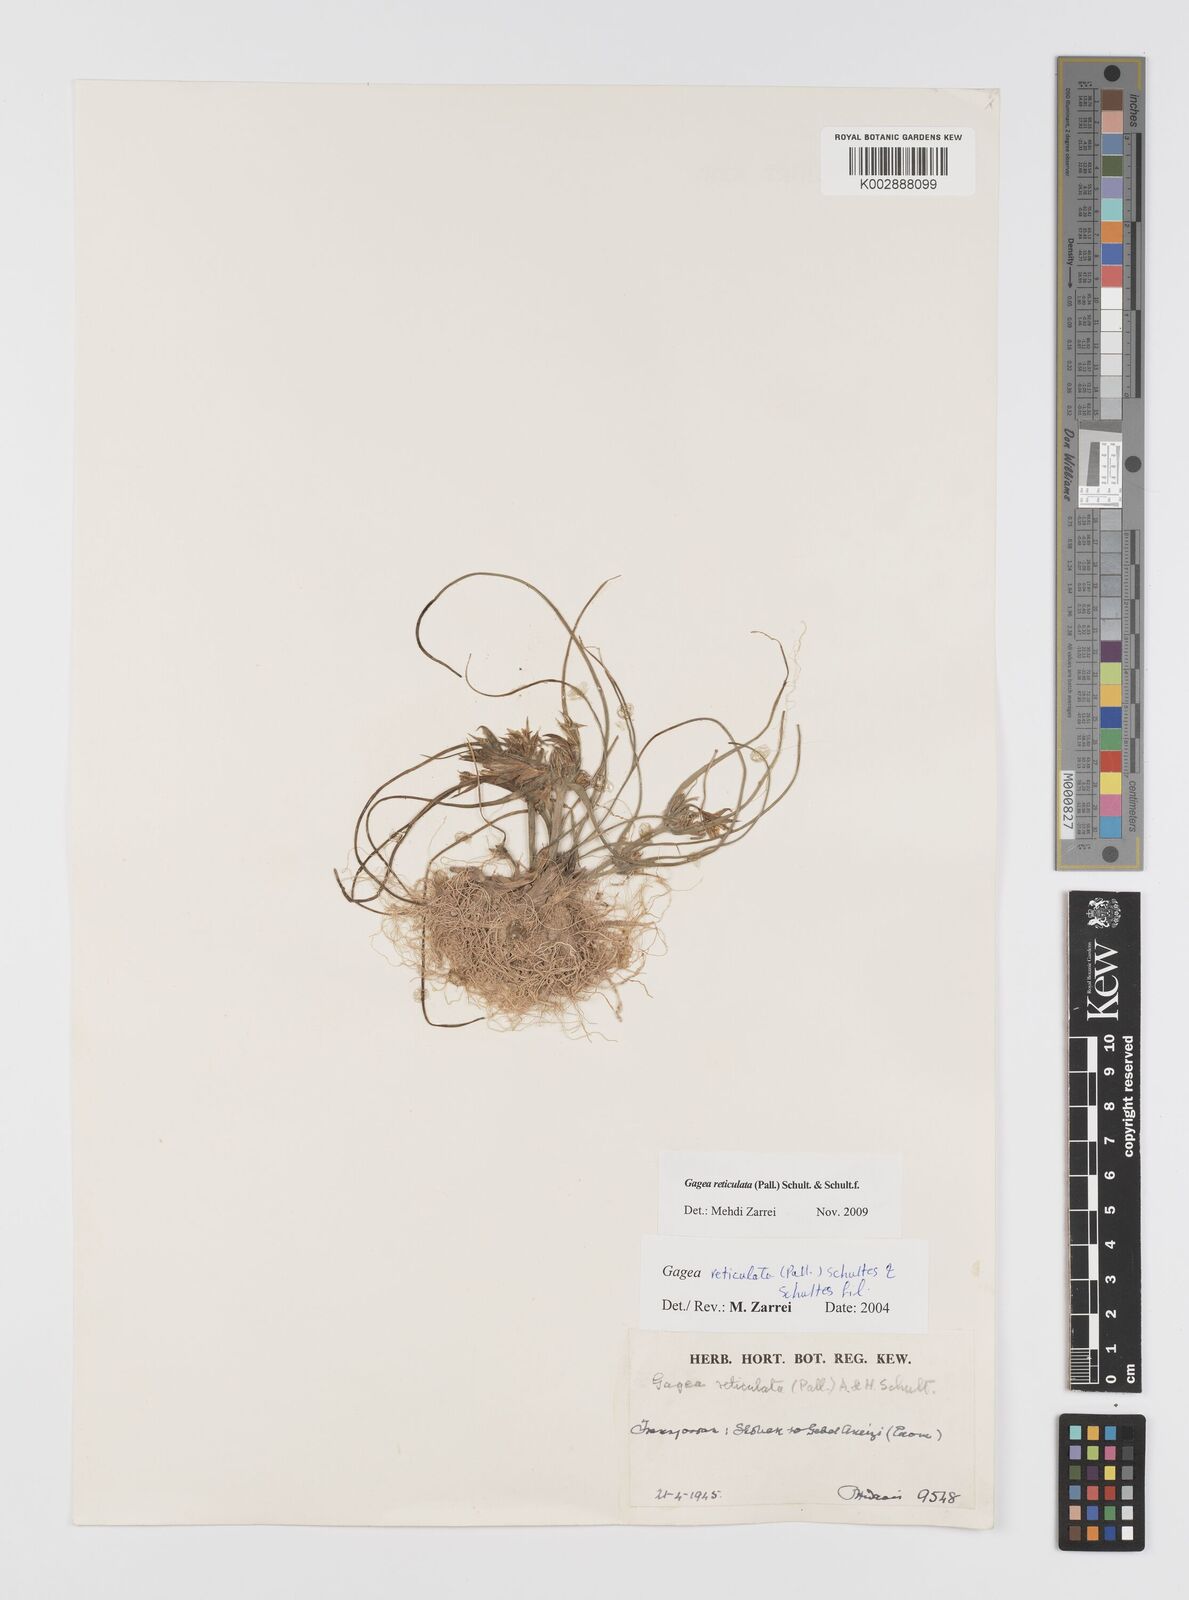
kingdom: Plantae
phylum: Tracheophyta
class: Liliopsida
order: Liliales
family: Liliaceae
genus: Gagea
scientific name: Gagea reticulata
